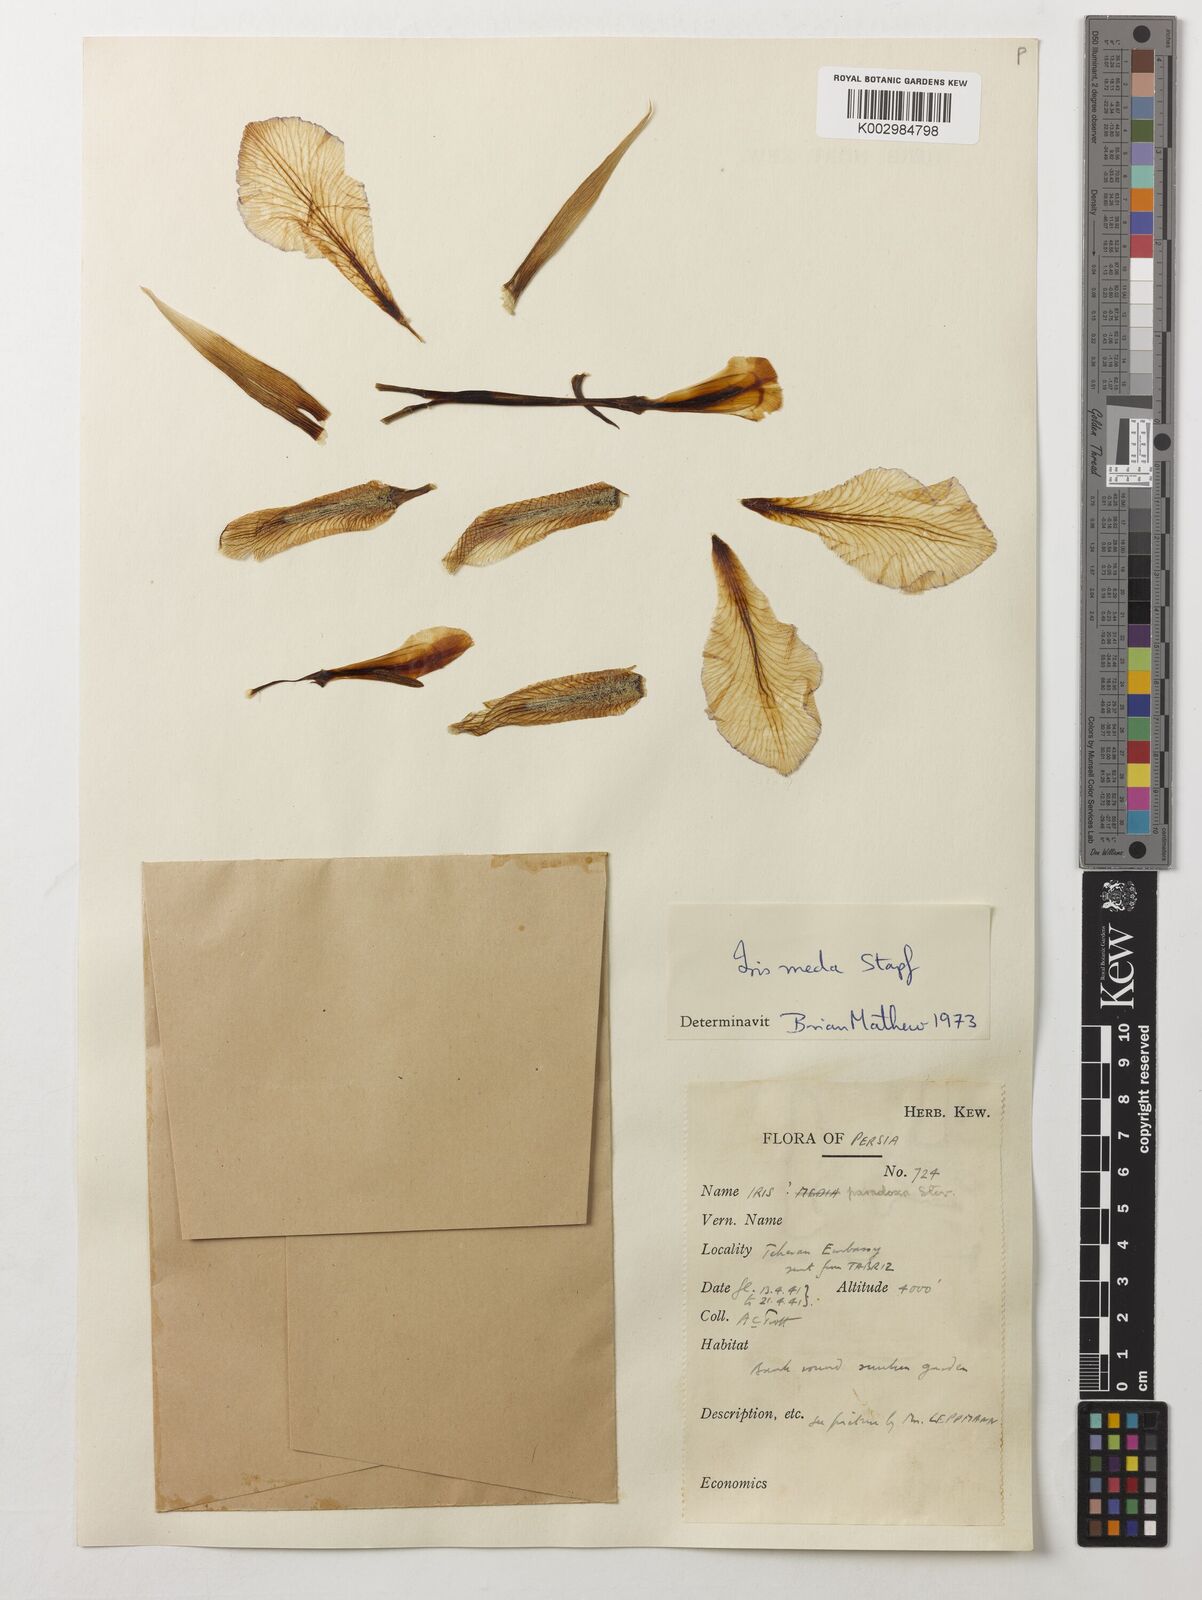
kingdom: Plantae
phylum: Tracheophyta
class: Liliopsida
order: Asparagales
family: Iridaceae
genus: Iris
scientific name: Iris meda
